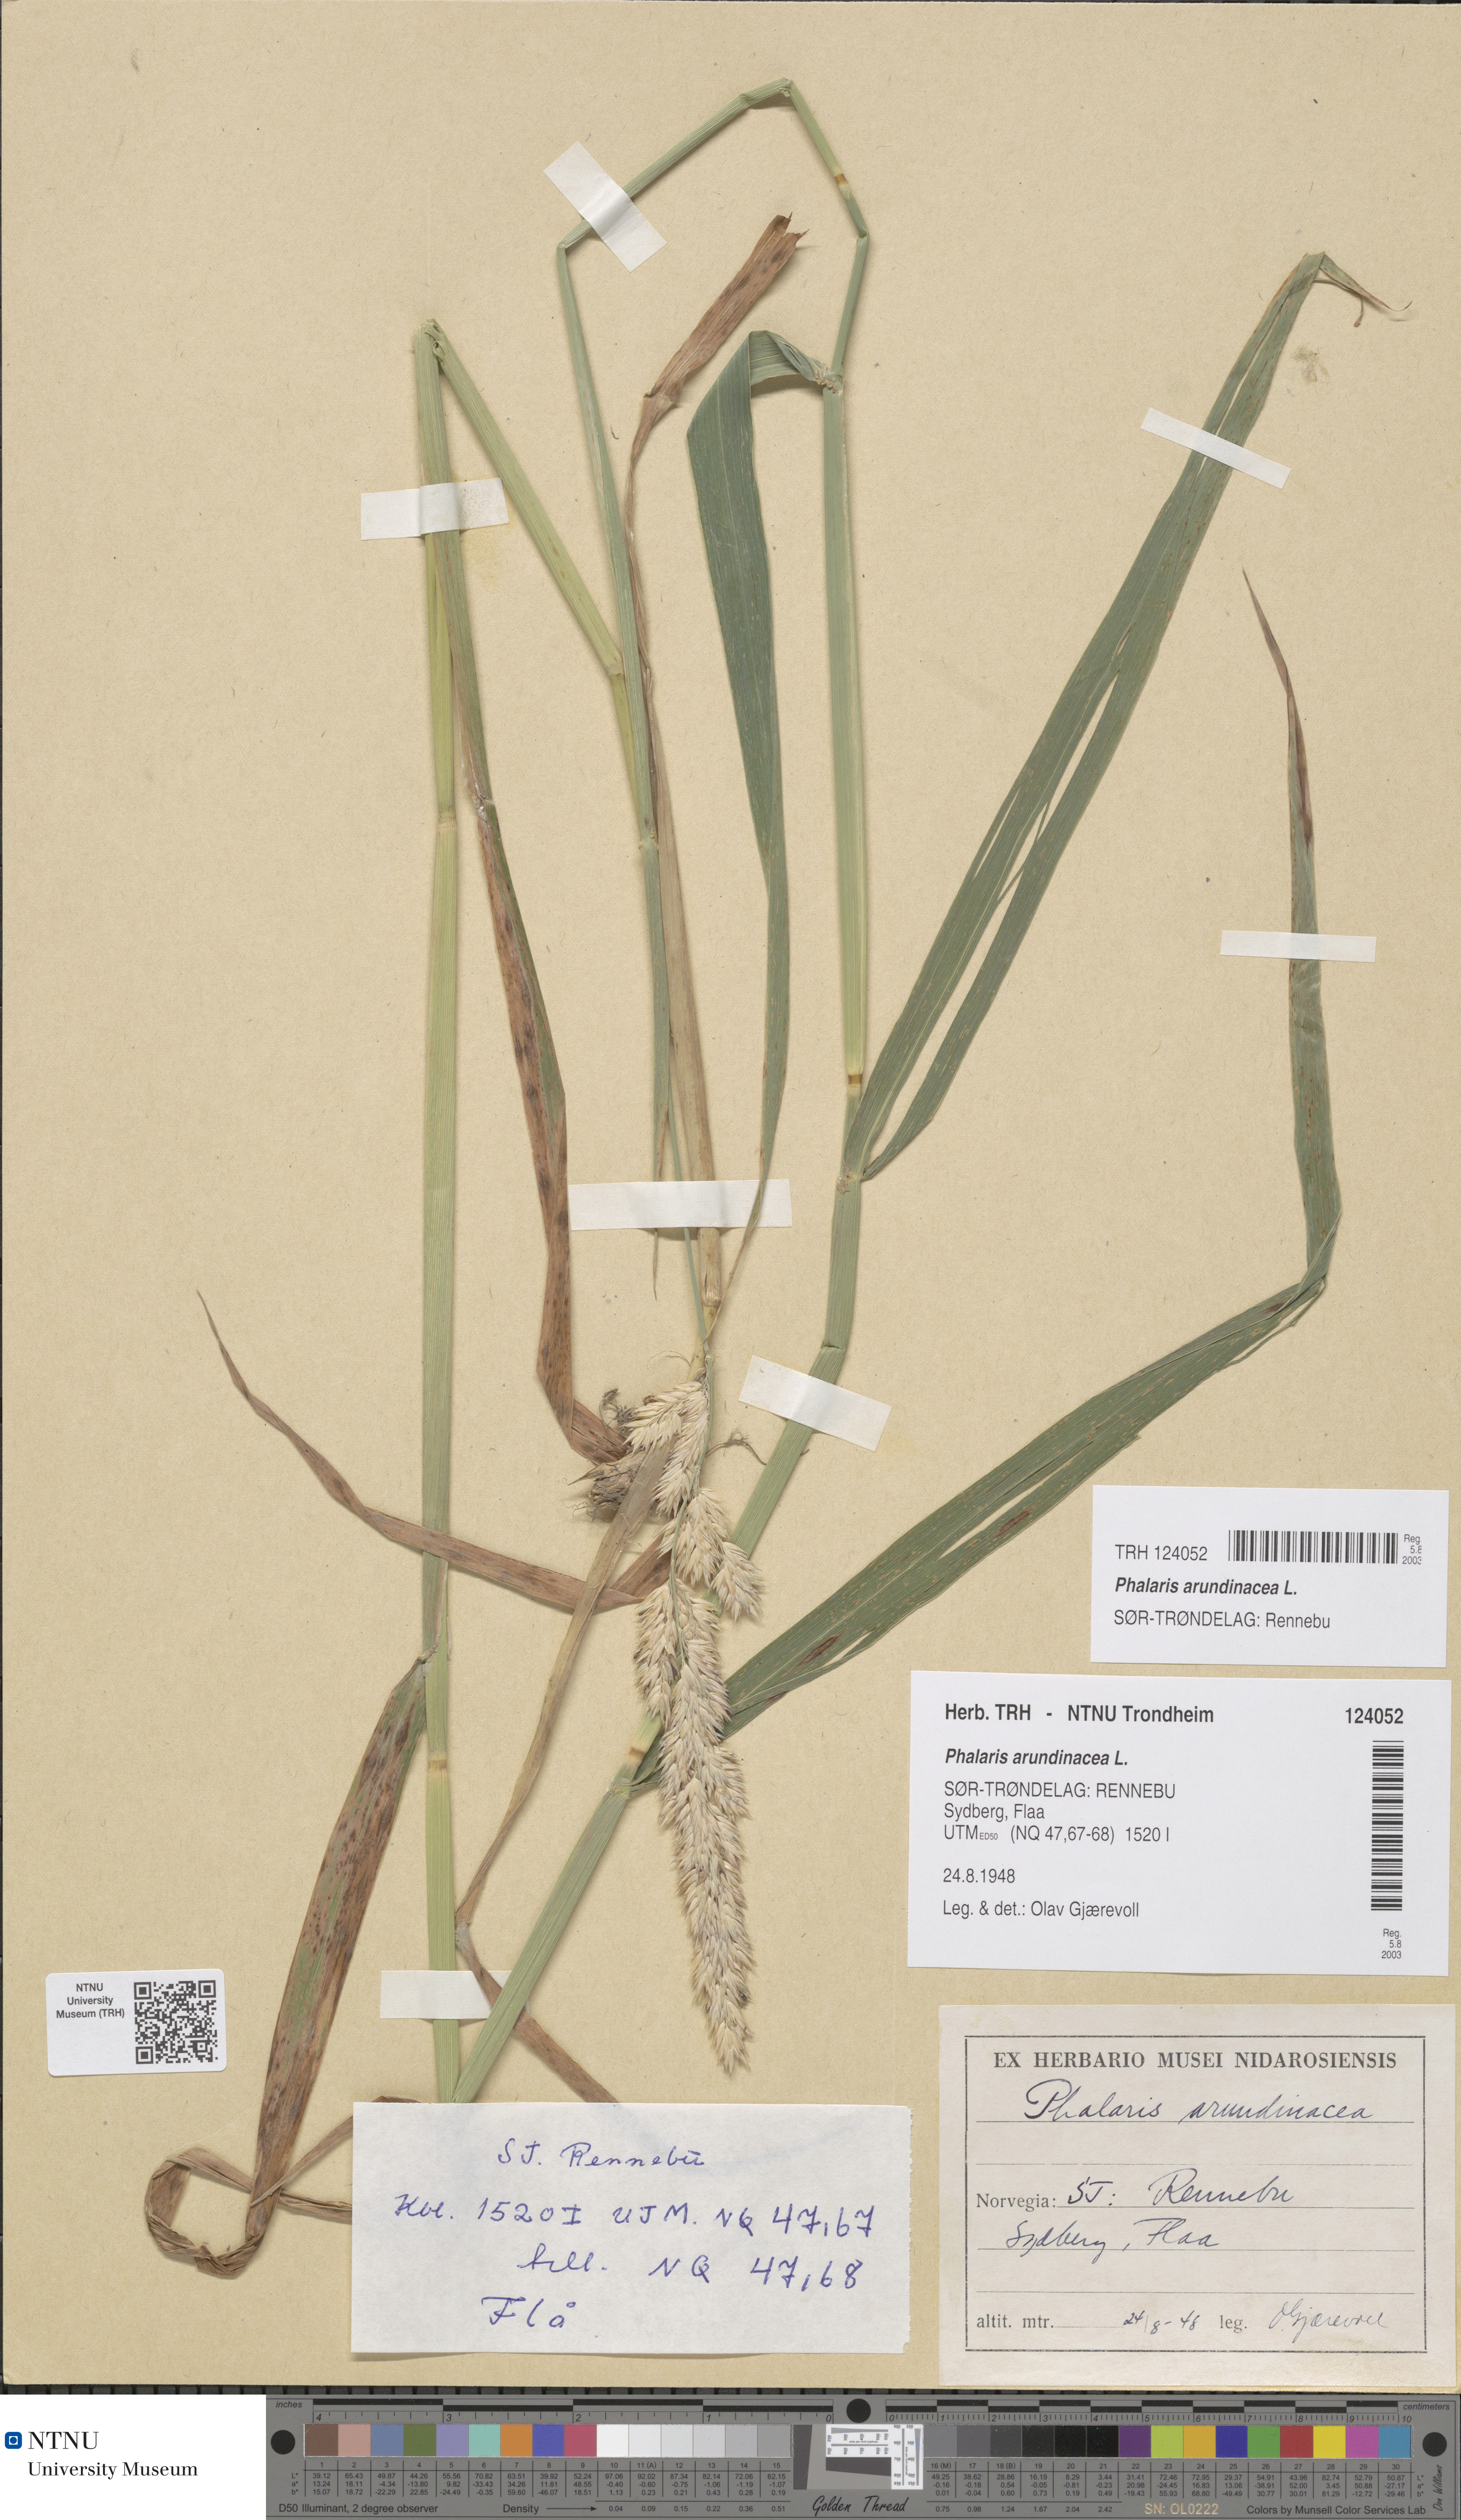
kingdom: Plantae
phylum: Tracheophyta
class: Liliopsida
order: Poales
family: Poaceae
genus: Phalaris
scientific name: Phalaris arundinacea
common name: Reed canary-grass
